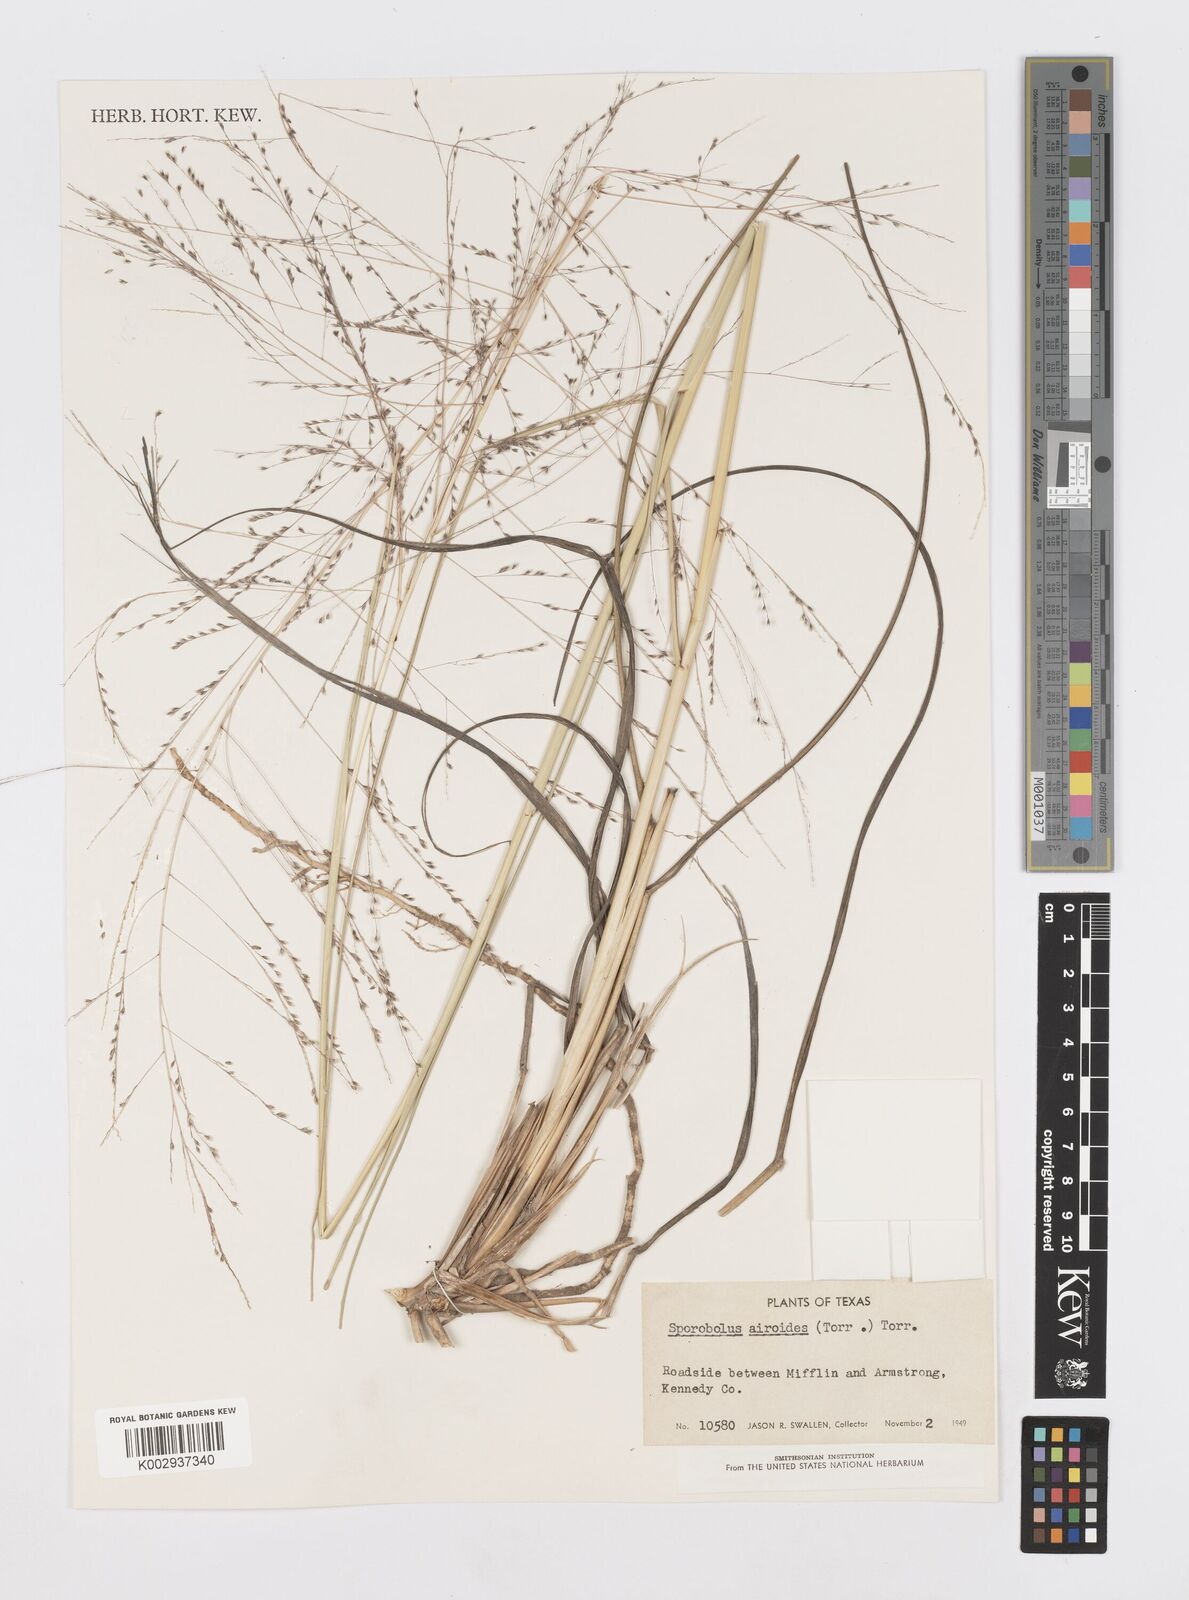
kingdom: Plantae
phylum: Tracheophyta
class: Liliopsida
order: Poales
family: Poaceae
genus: Sporobolus
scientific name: Sporobolus airoides
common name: Alkali sacaton
